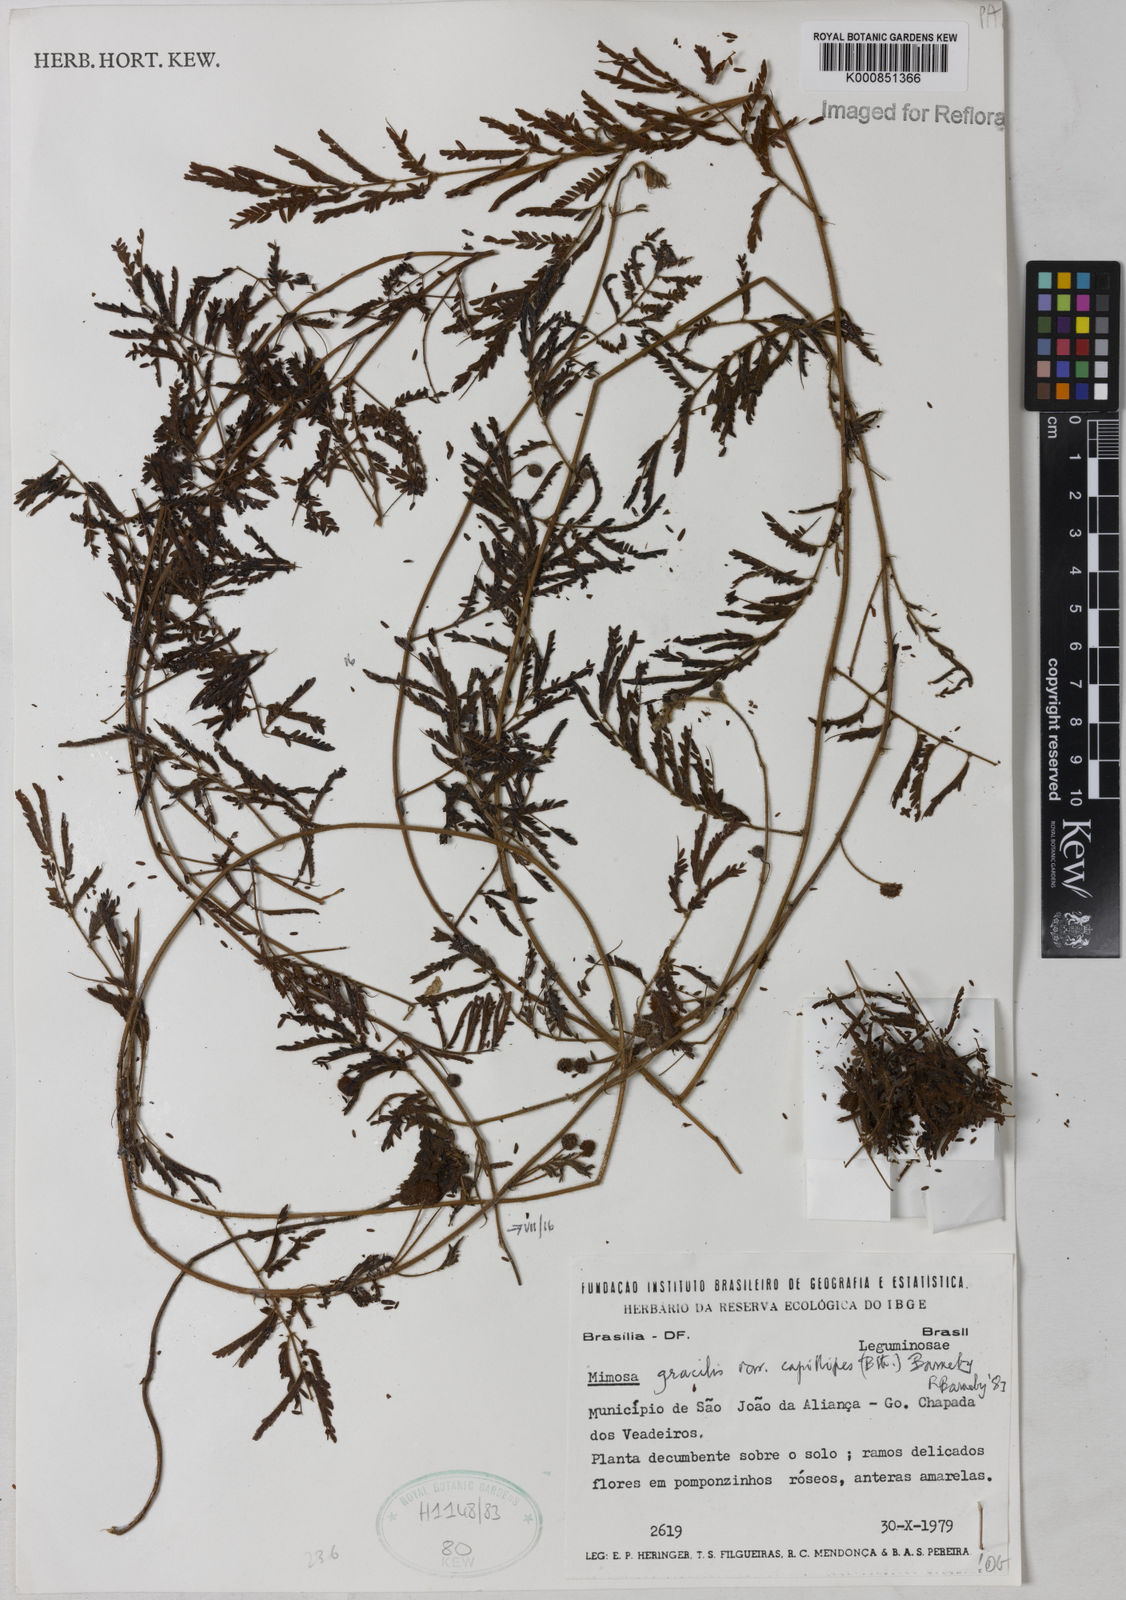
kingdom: Plantae
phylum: Tracheophyta
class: Magnoliopsida
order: Fabales
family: Fabaceae
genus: Mimosa
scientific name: Mimosa gracilis
